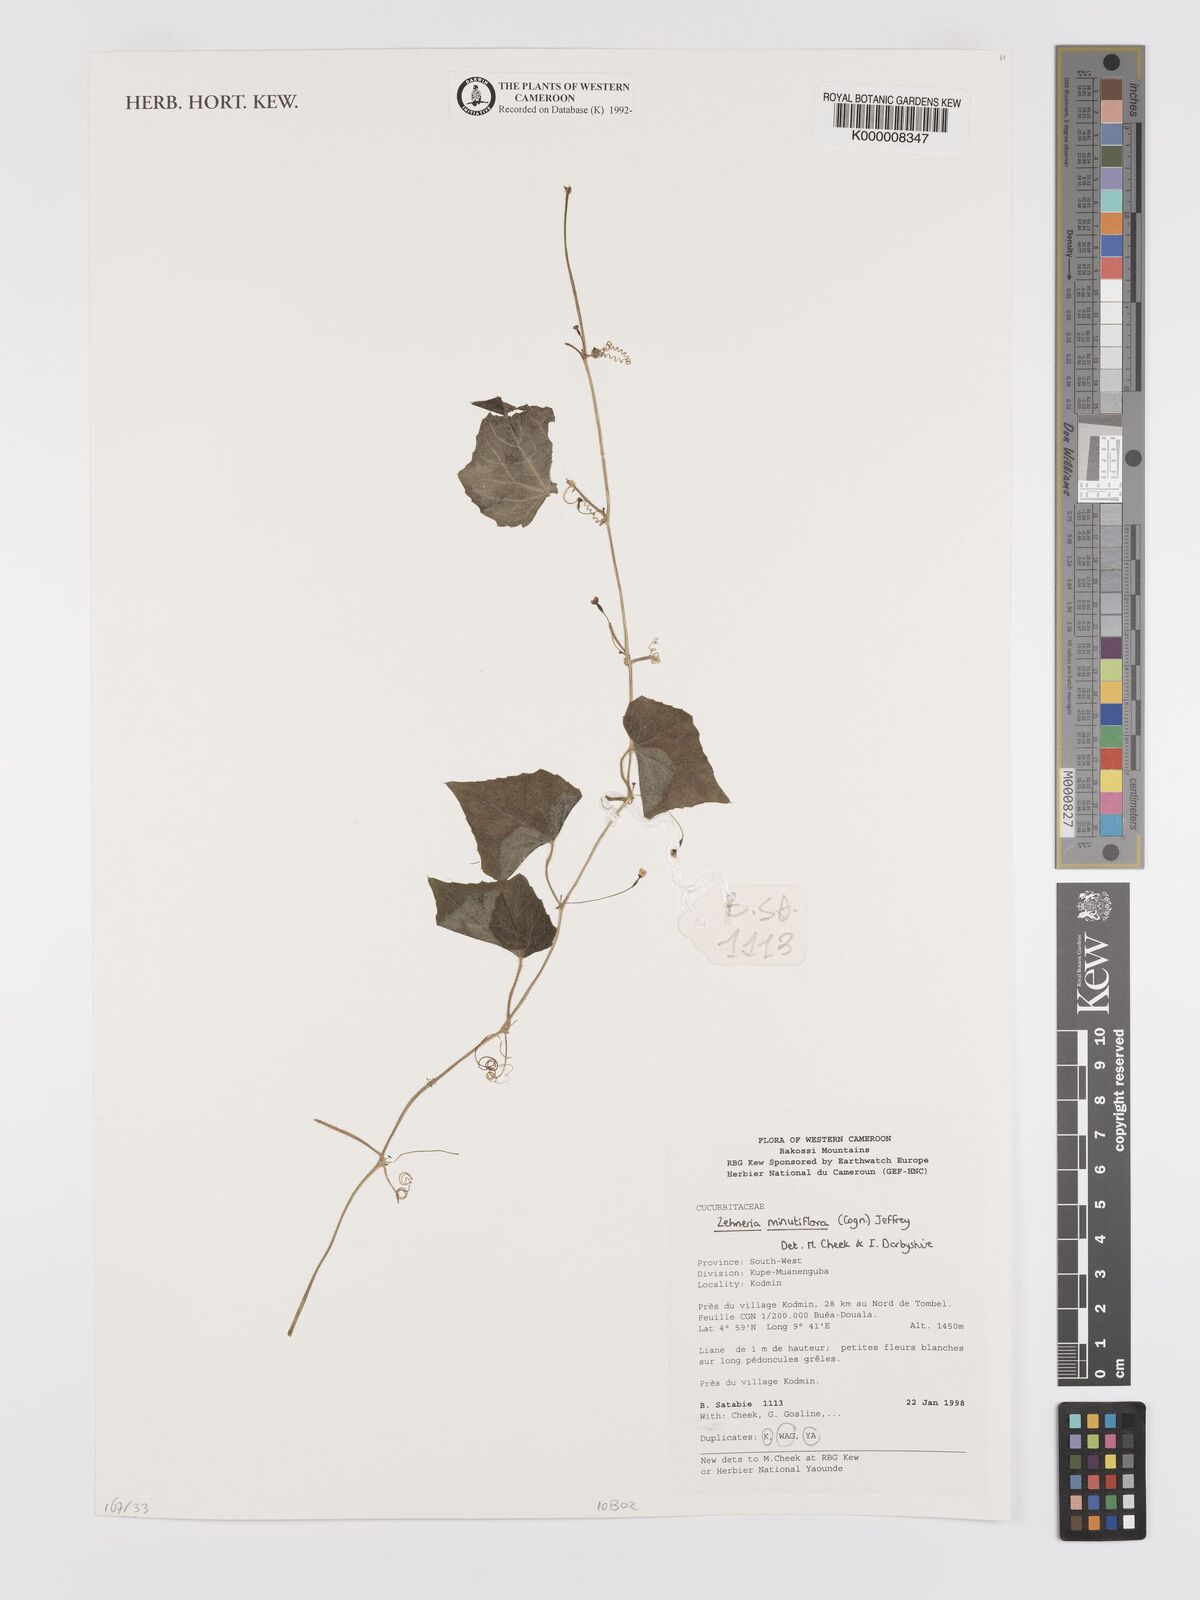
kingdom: Plantae
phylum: Tracheophyta
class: Magnoliopsida
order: Cucurbitales
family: Cucurbitaceae
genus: Zehneria
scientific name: Zehneria minutiflora
